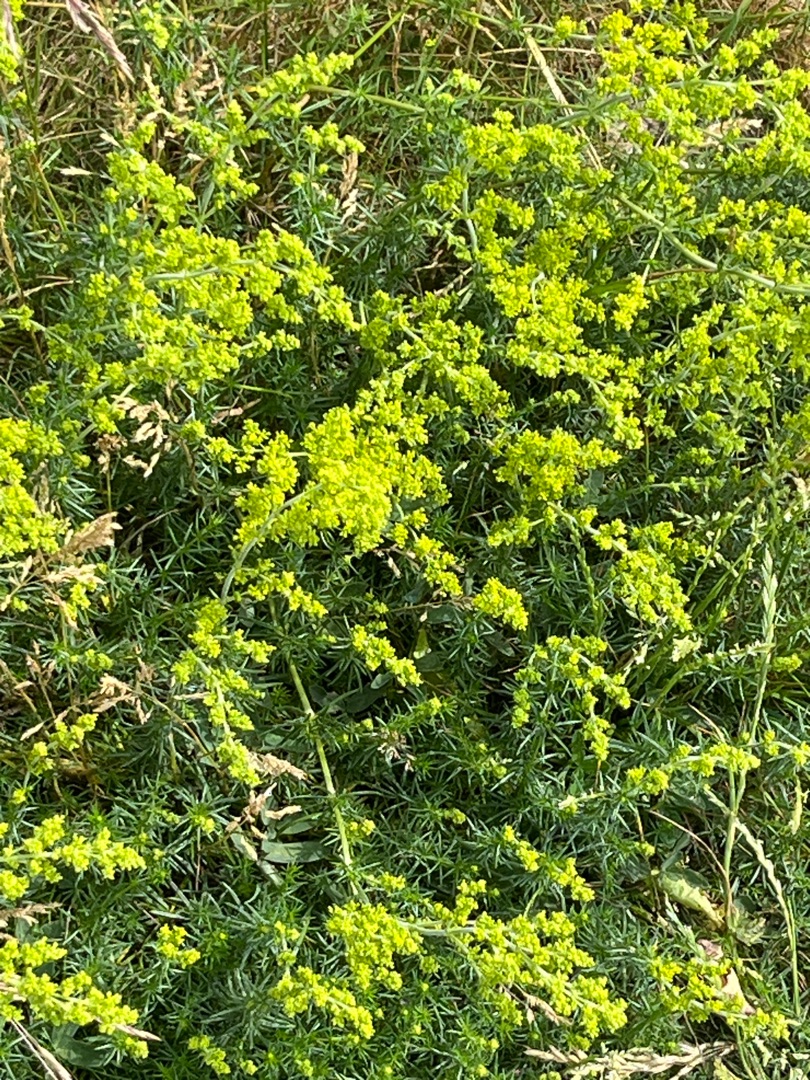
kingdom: Plantae
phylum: Tracheophyta
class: Magnoliopsida
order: Gentianales
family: Rubiaceae
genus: Galium
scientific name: Galium verum
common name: Gul snerre
